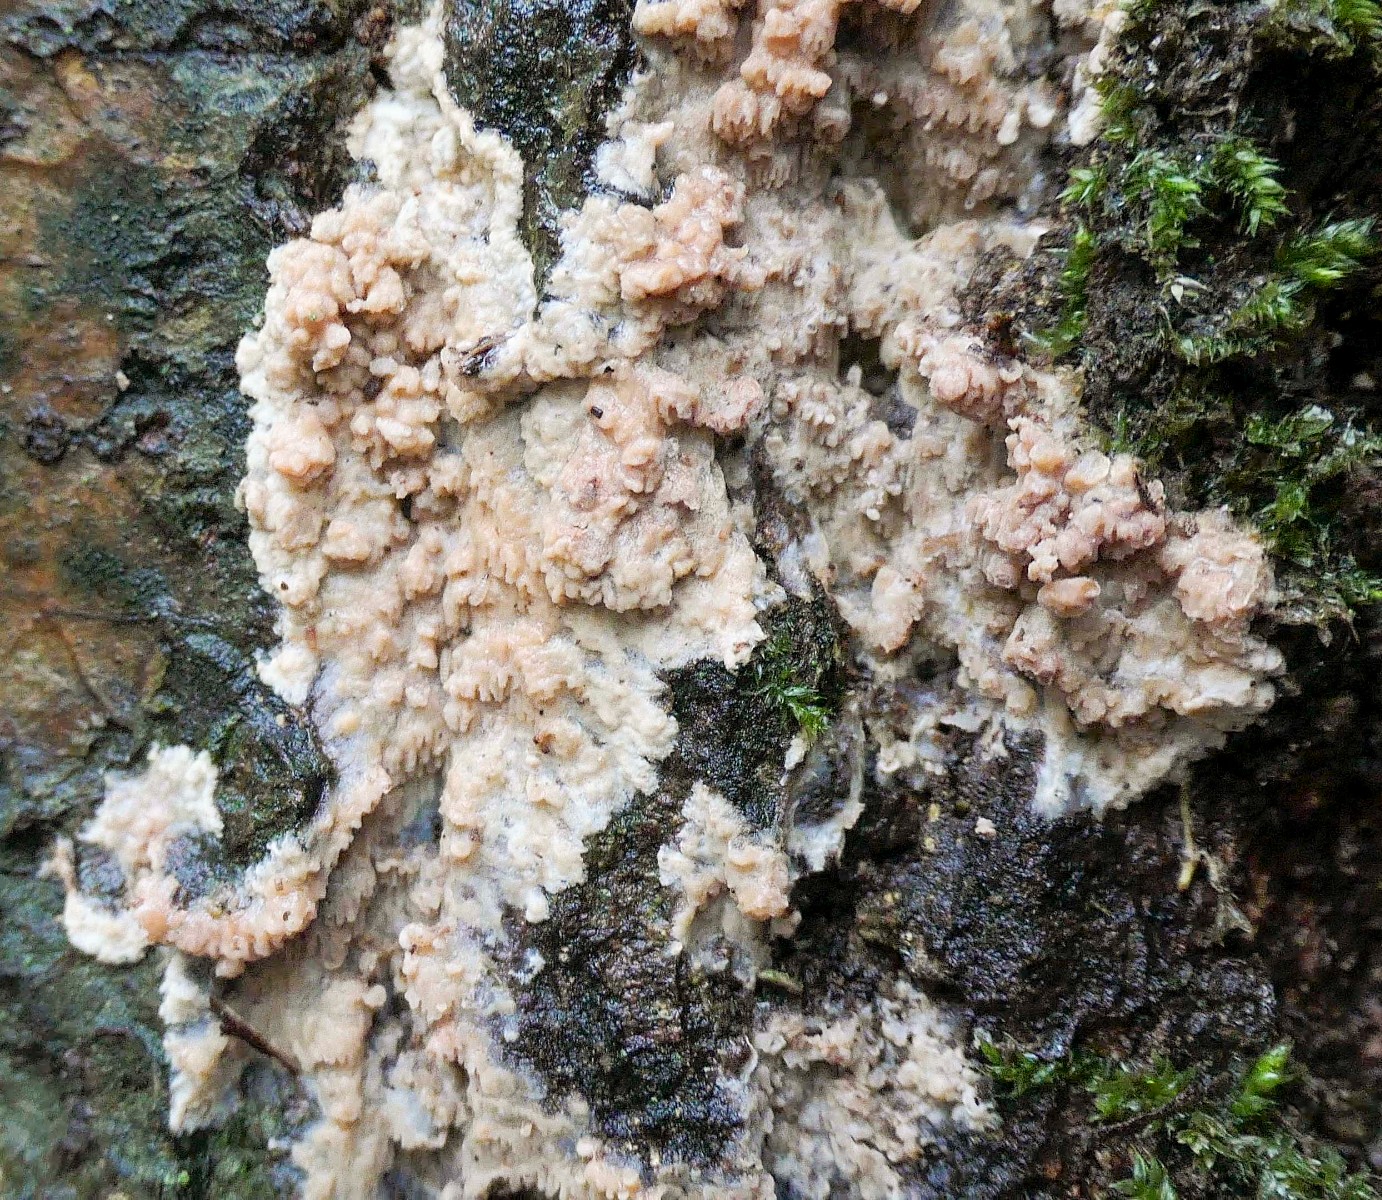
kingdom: Fungi
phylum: Basidiomycota
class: Agaricomycetes
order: Polyporales
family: Meruliaceae
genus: Phlebia
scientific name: Phlebia rufa
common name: ege-åresvamp
